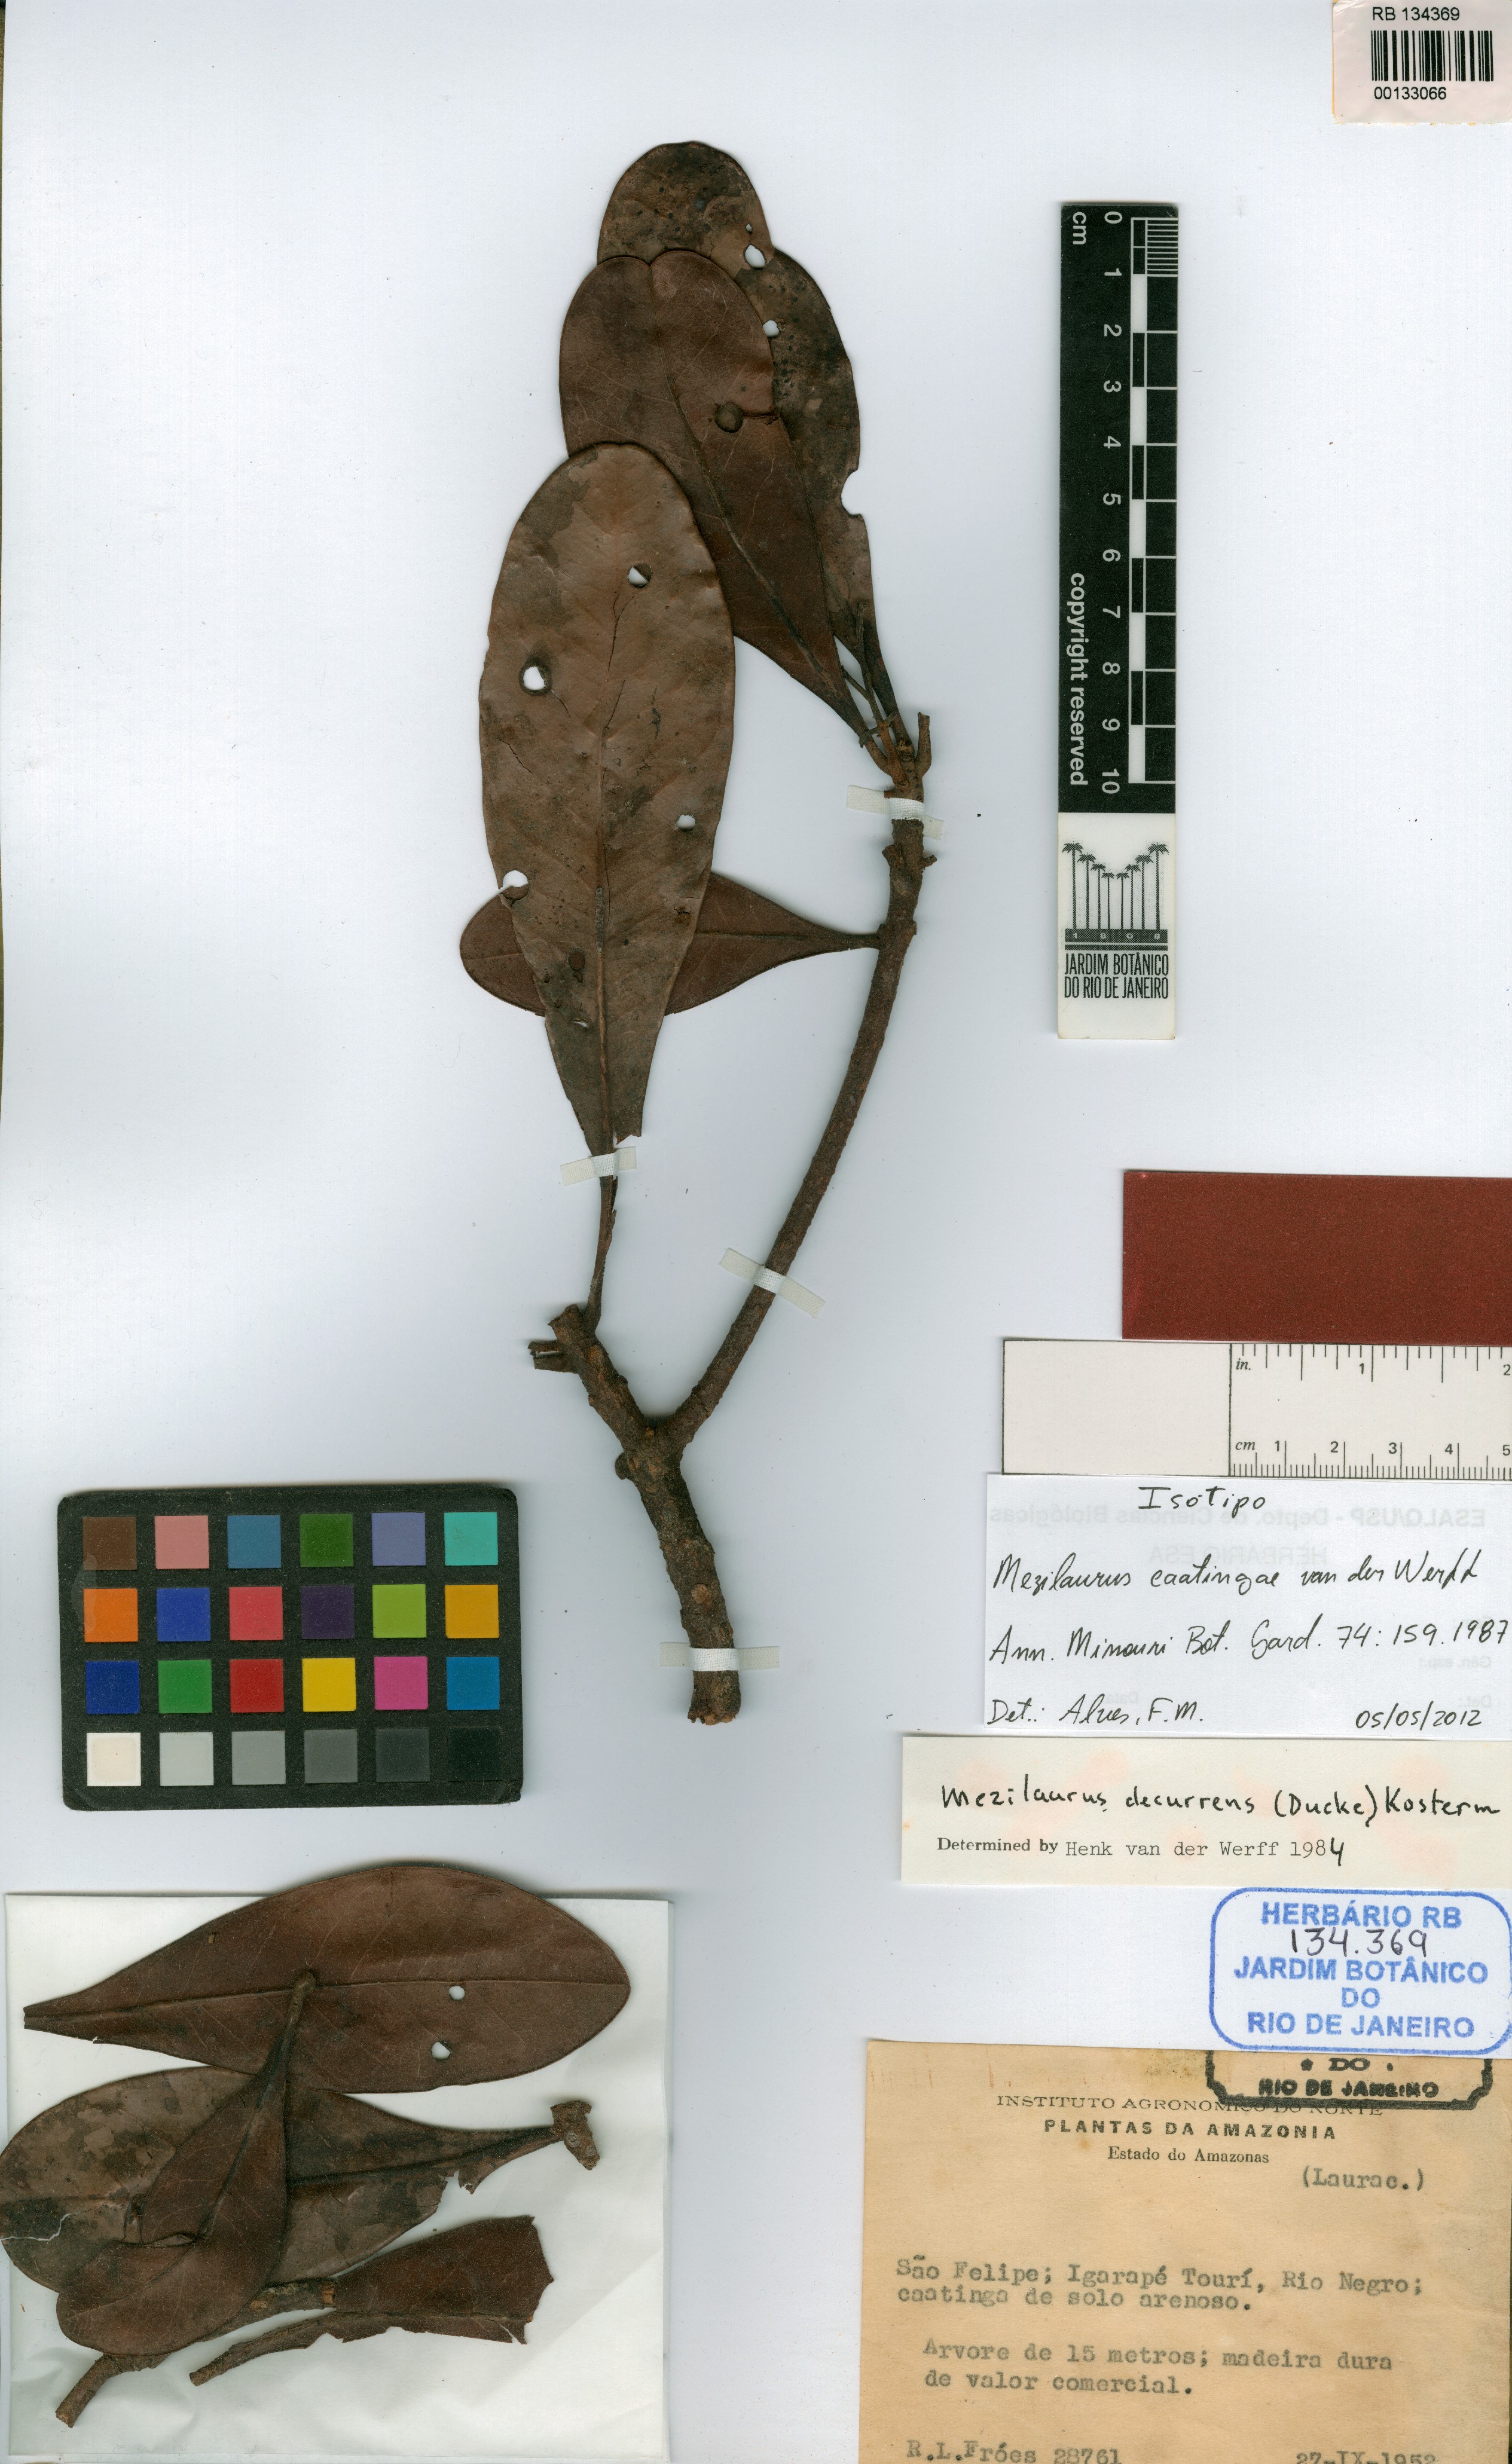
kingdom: Plantae
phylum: Tracheophyta
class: Magnoliopsida
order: Laurales
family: Lauraceae
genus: Mezilaurus
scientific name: Mezilaurus caatingae
